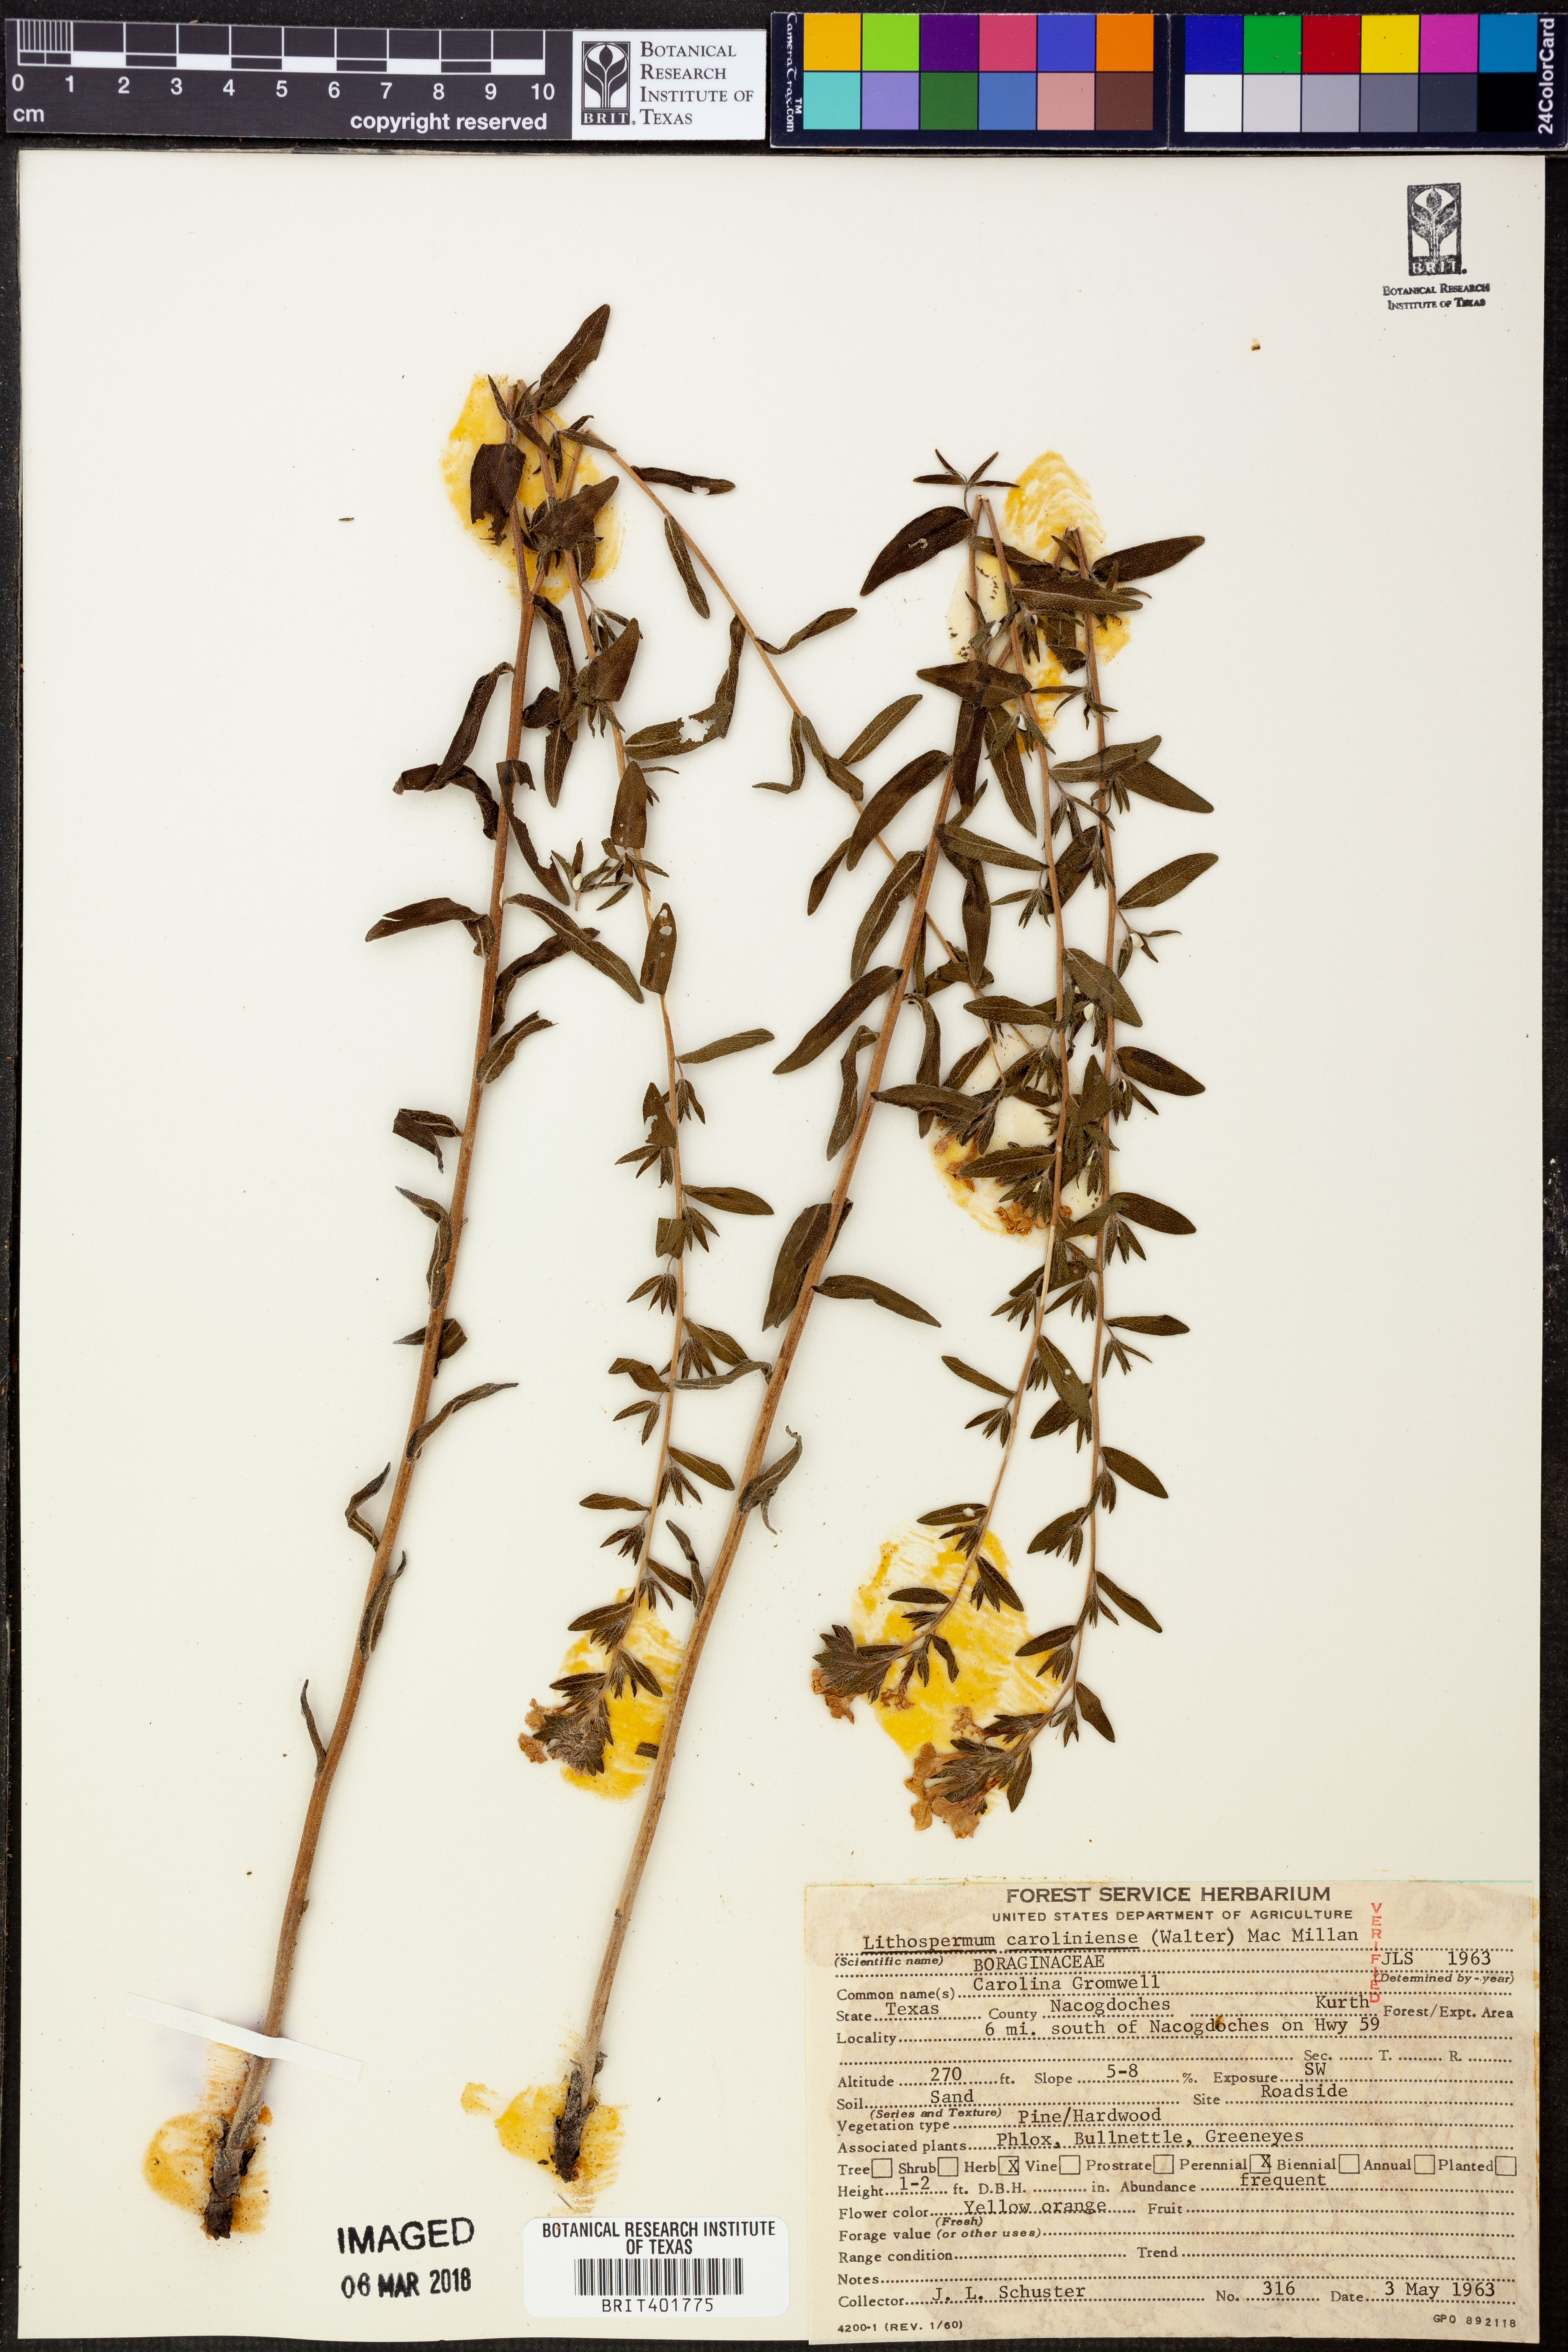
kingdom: Plantae
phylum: Tracheophyta
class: Magnoliopsida
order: Boraginales
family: Boraginaceae
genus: Lithospermum
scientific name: Lithospermum caroliniense
